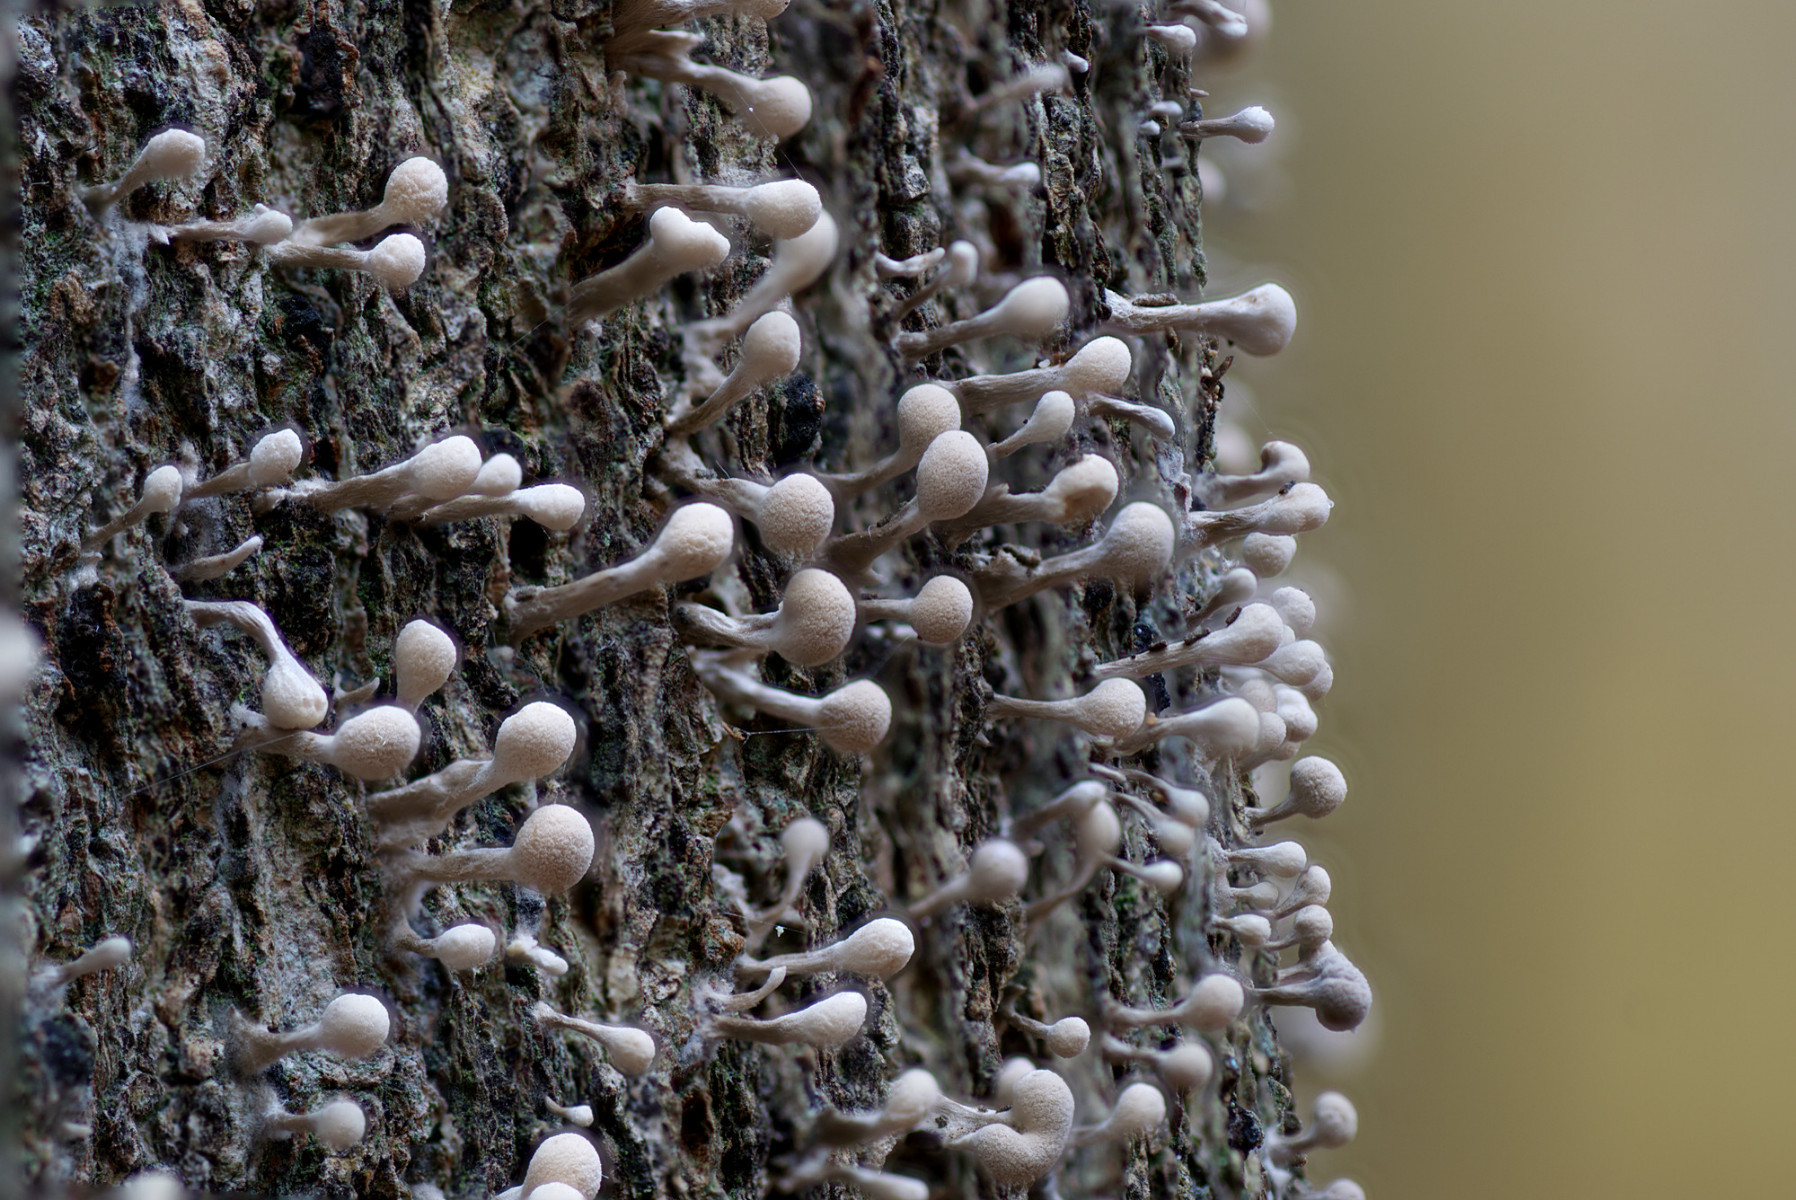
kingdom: Fungi
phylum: Basidiomycota
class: Atractiellomycetes
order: Atractiellales
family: Phleogenaceae
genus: Phleogena
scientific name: Phleogena faginea
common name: pudderkølle
